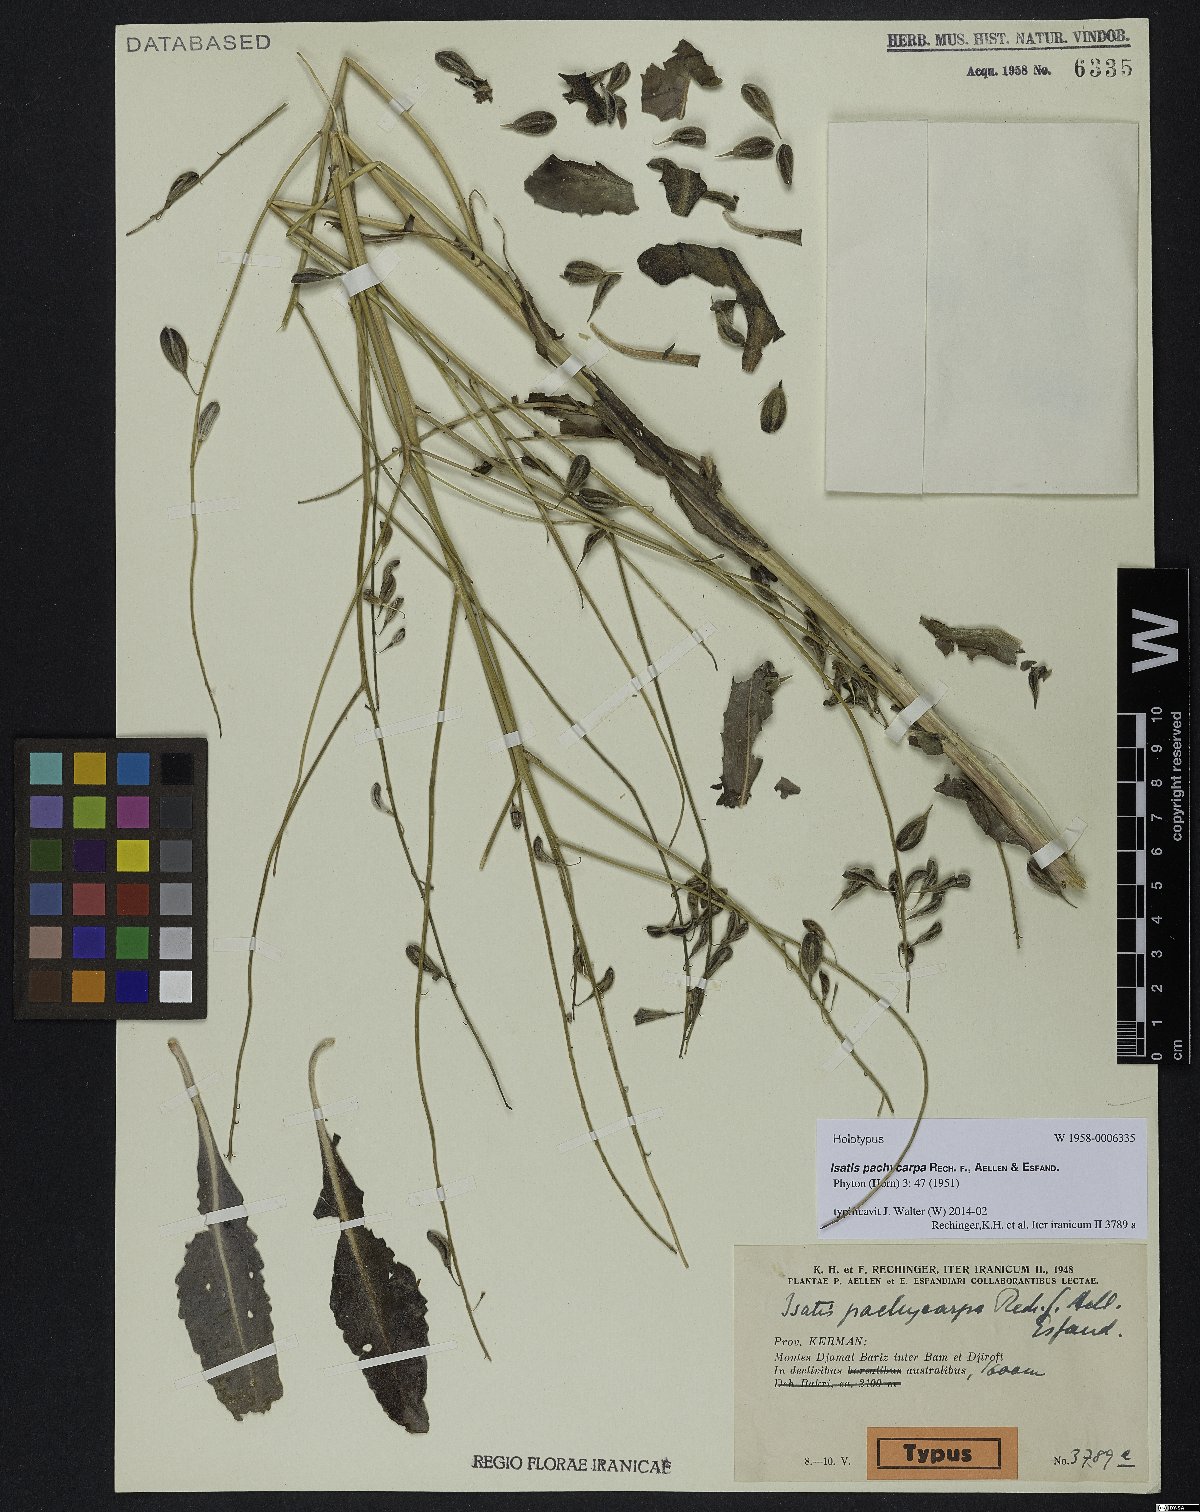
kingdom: Plantae
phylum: Tracheophyta
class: Magnoliopsida
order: Brassicales
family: Brassicaceae
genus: Isatis
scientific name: Isatis pachycarpa
